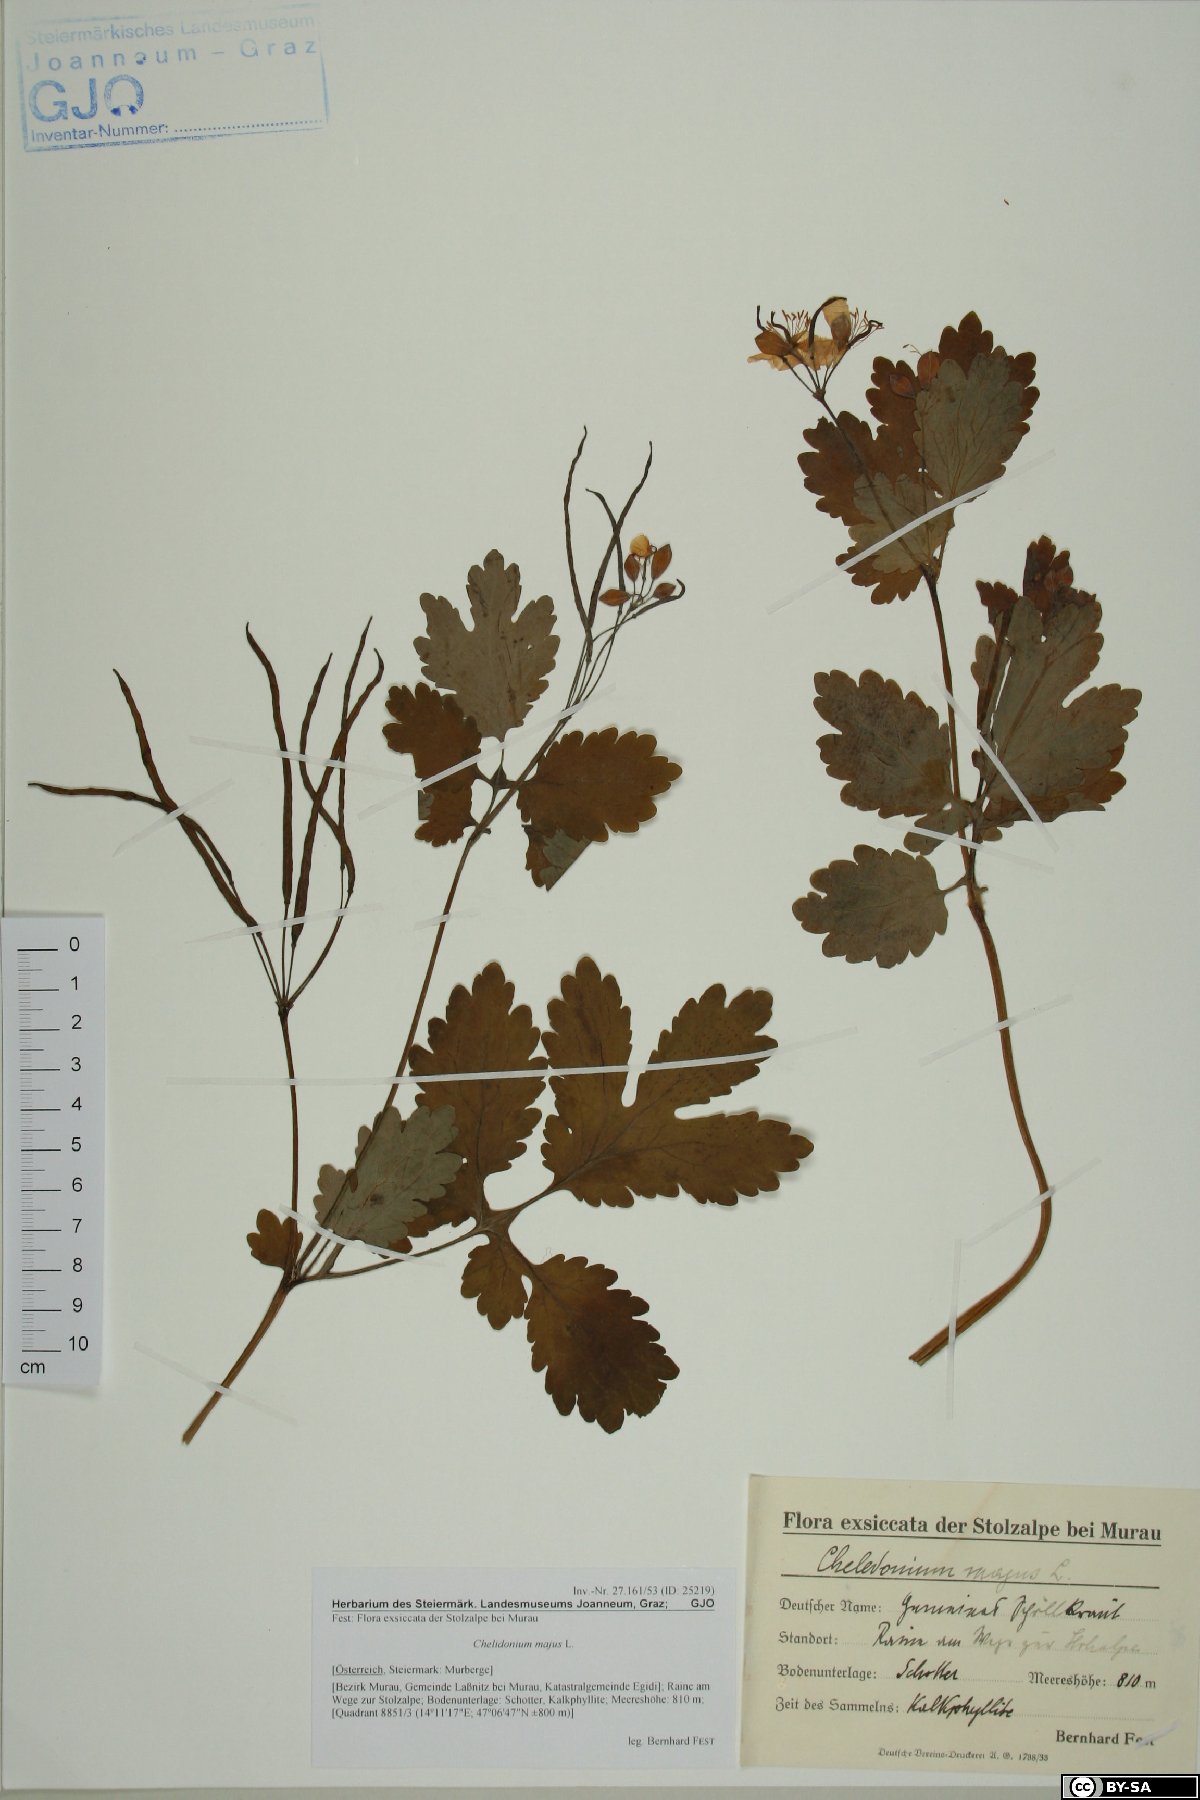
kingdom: Plantae
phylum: Tracheophyta
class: Magnoliopsida
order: Ranunculales
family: Papaveraceae
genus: Chelidonium
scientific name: Chelidonium majus
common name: Greater celandine
